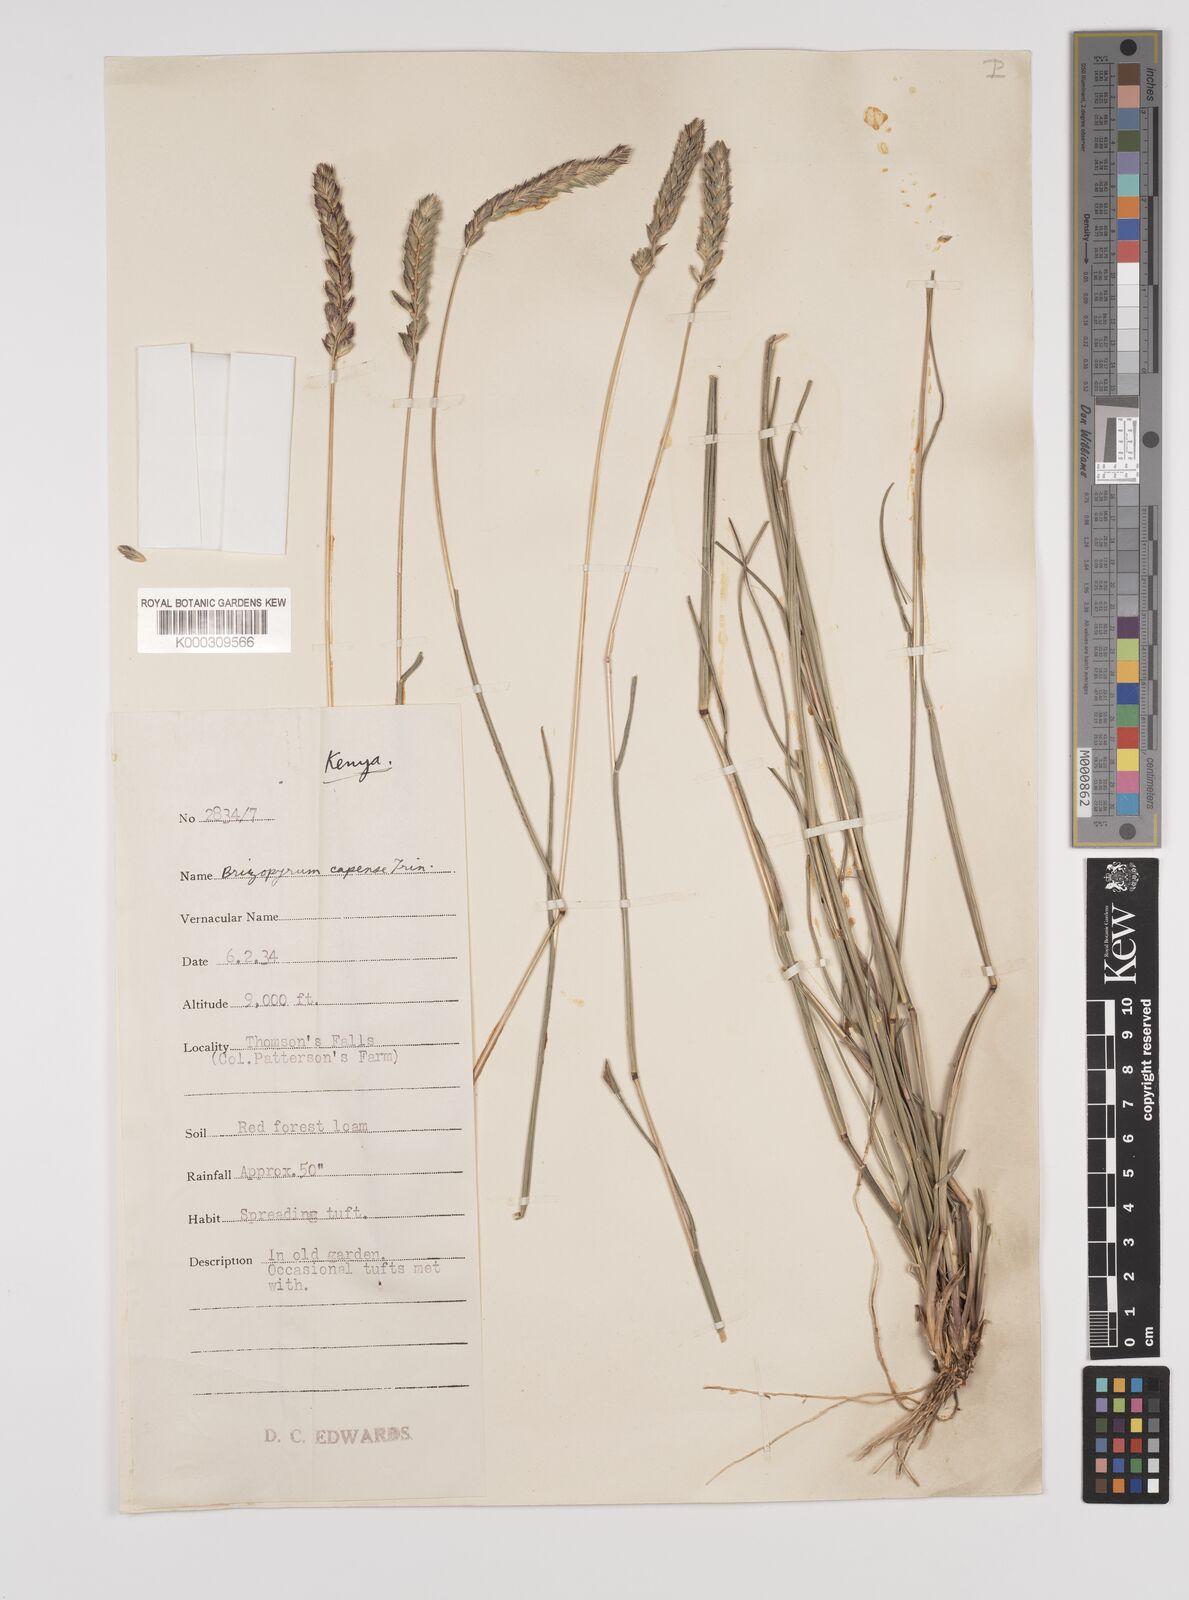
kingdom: Plantae
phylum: Tracheophyta
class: Liliopsida
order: Poales
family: Poaceae
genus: Tribolium
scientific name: Tribolium
